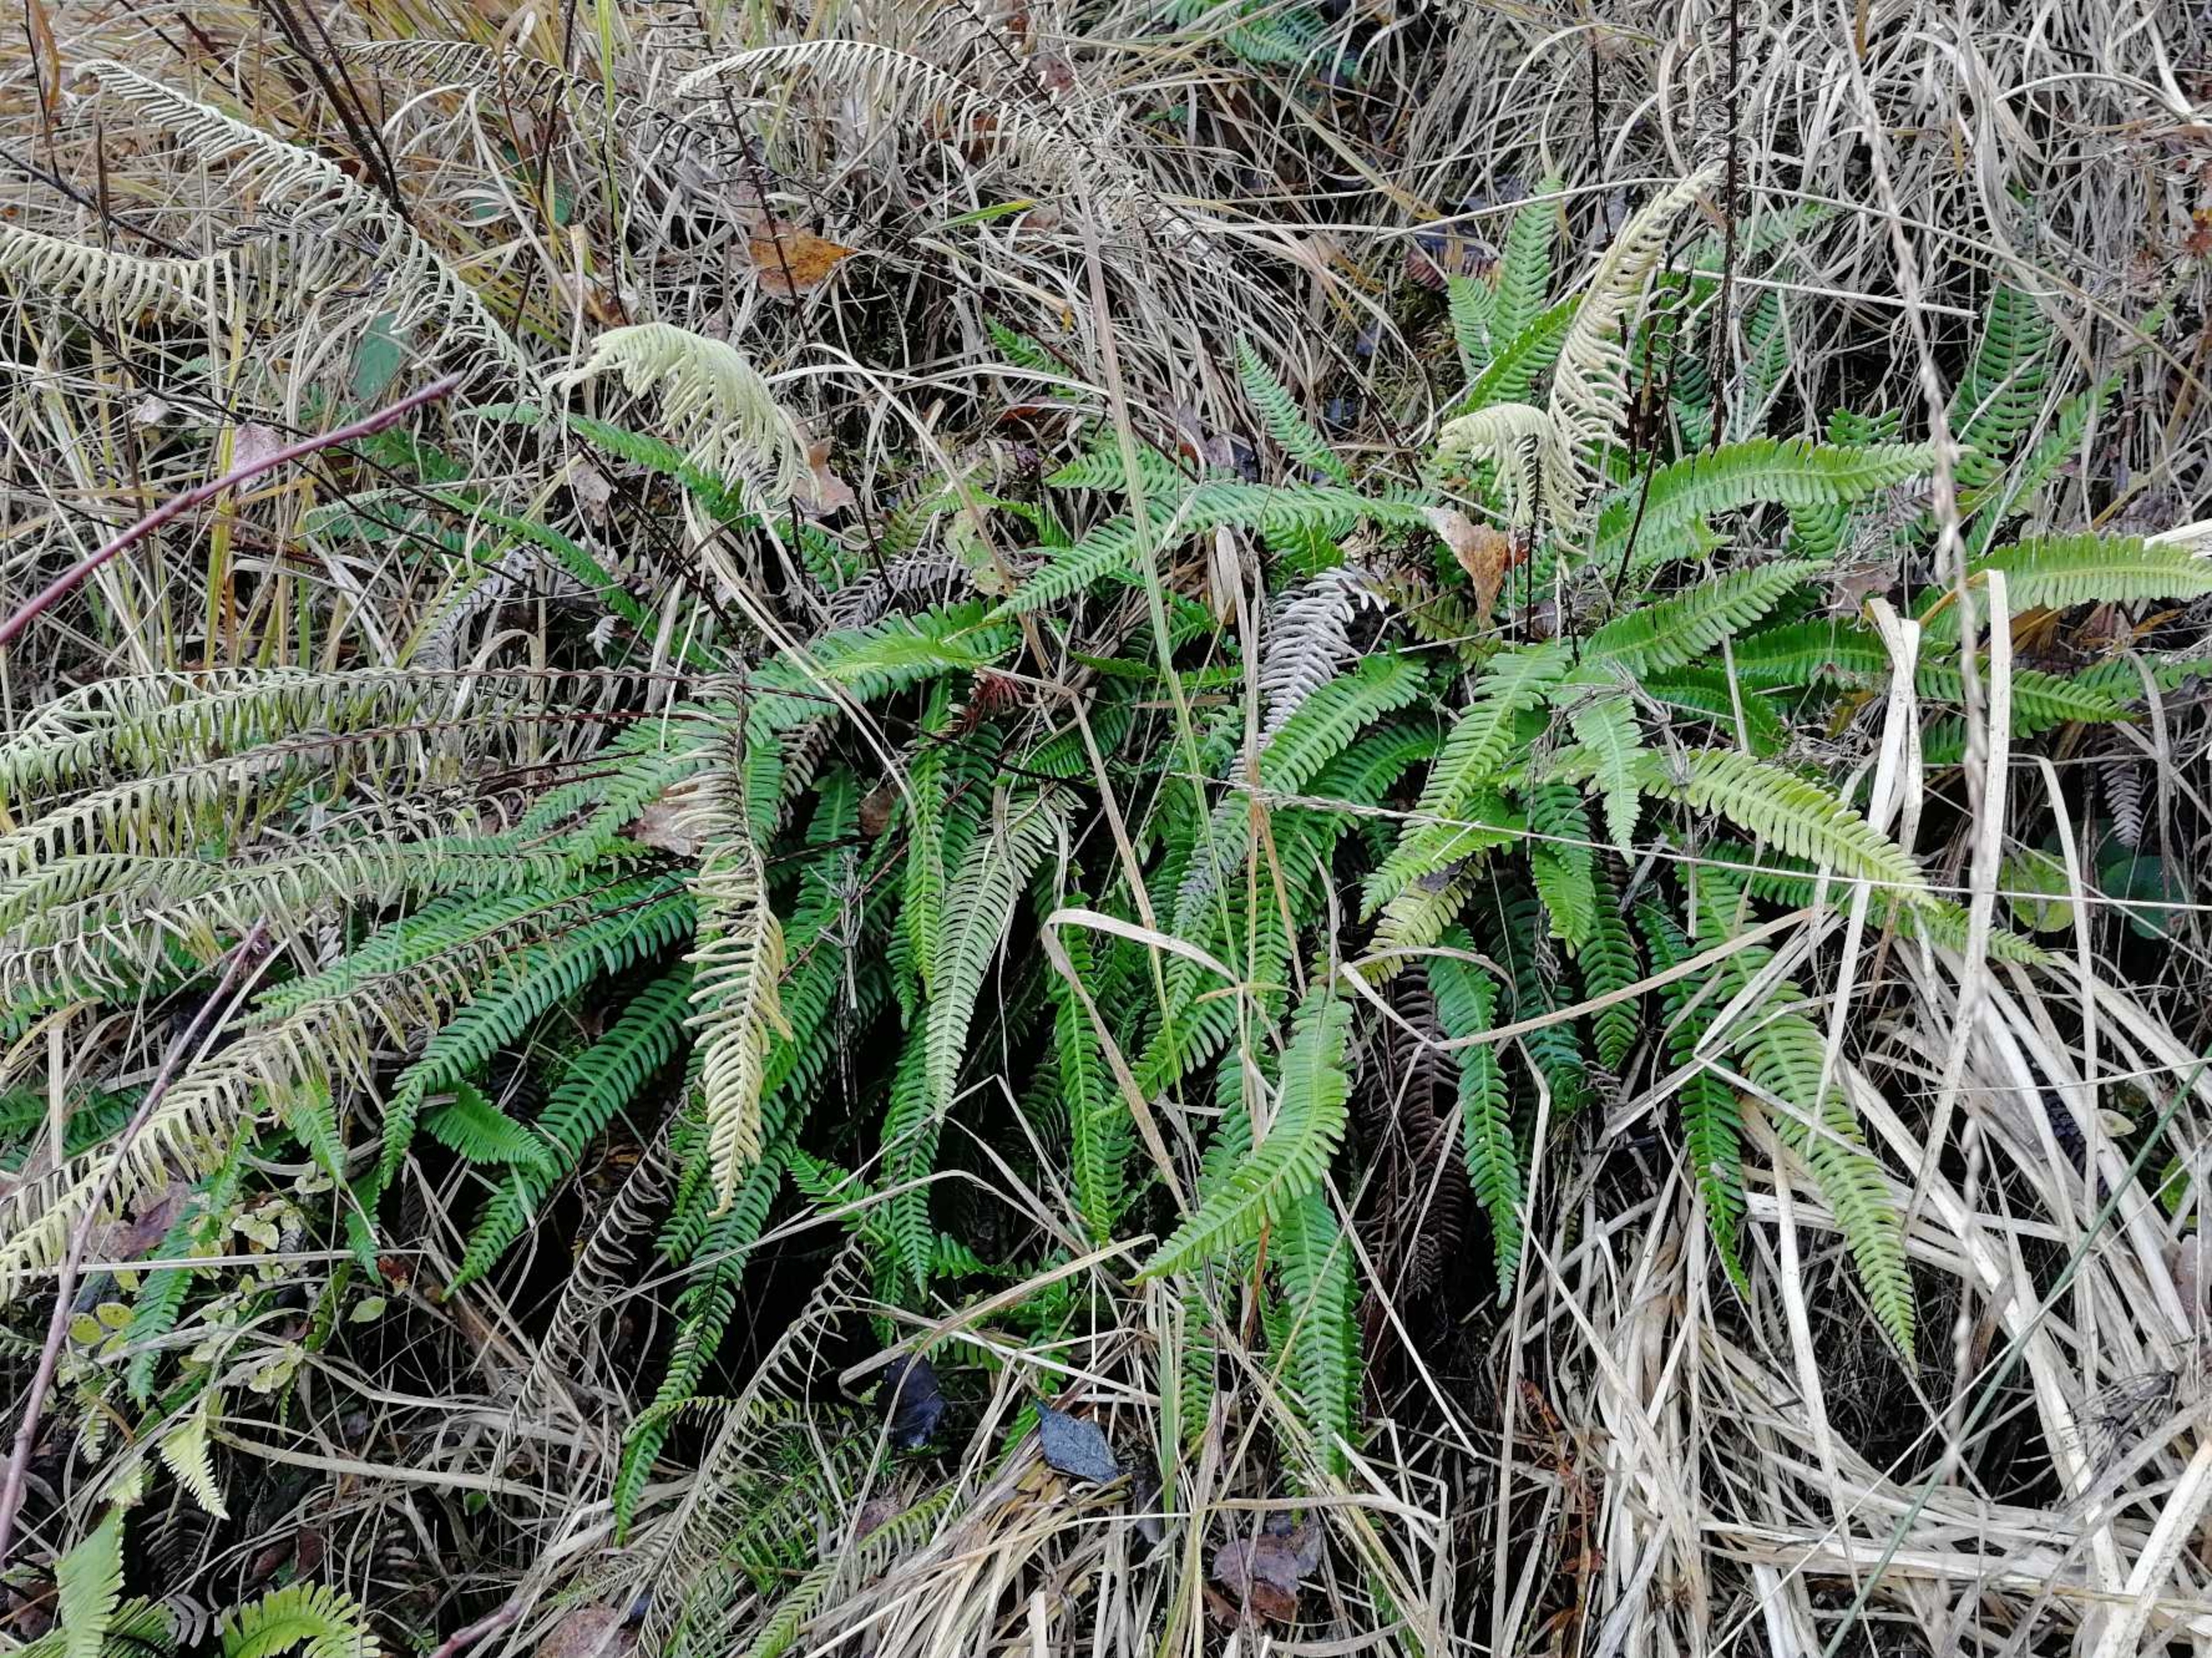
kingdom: Plantae
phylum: Tracheophyta
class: Polypodiopsida
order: Polypodiales
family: Blechnaceae
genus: Struthiopteris
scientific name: Struthiopteris spicant
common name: Kambregne
